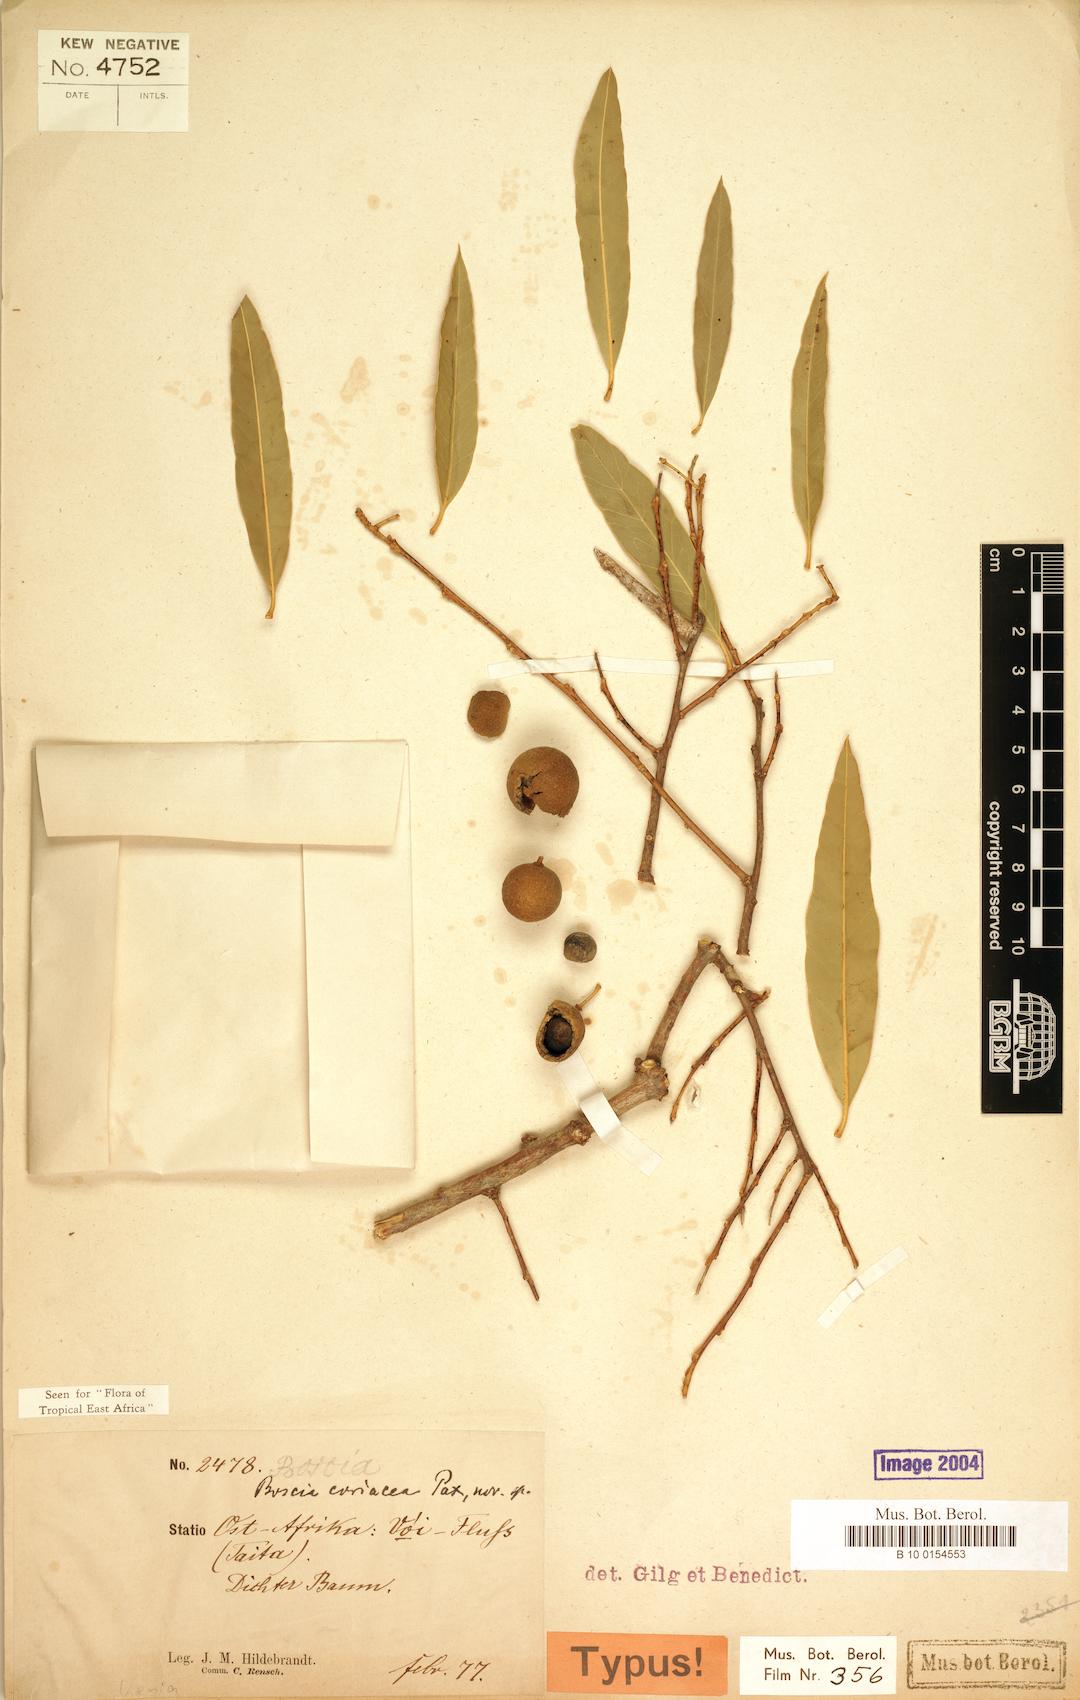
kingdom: Plantae
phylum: Tracheophyta
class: Magnoliopsida
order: Brassicales
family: Capparaceae
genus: Boscia
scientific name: Boscia coriacea
